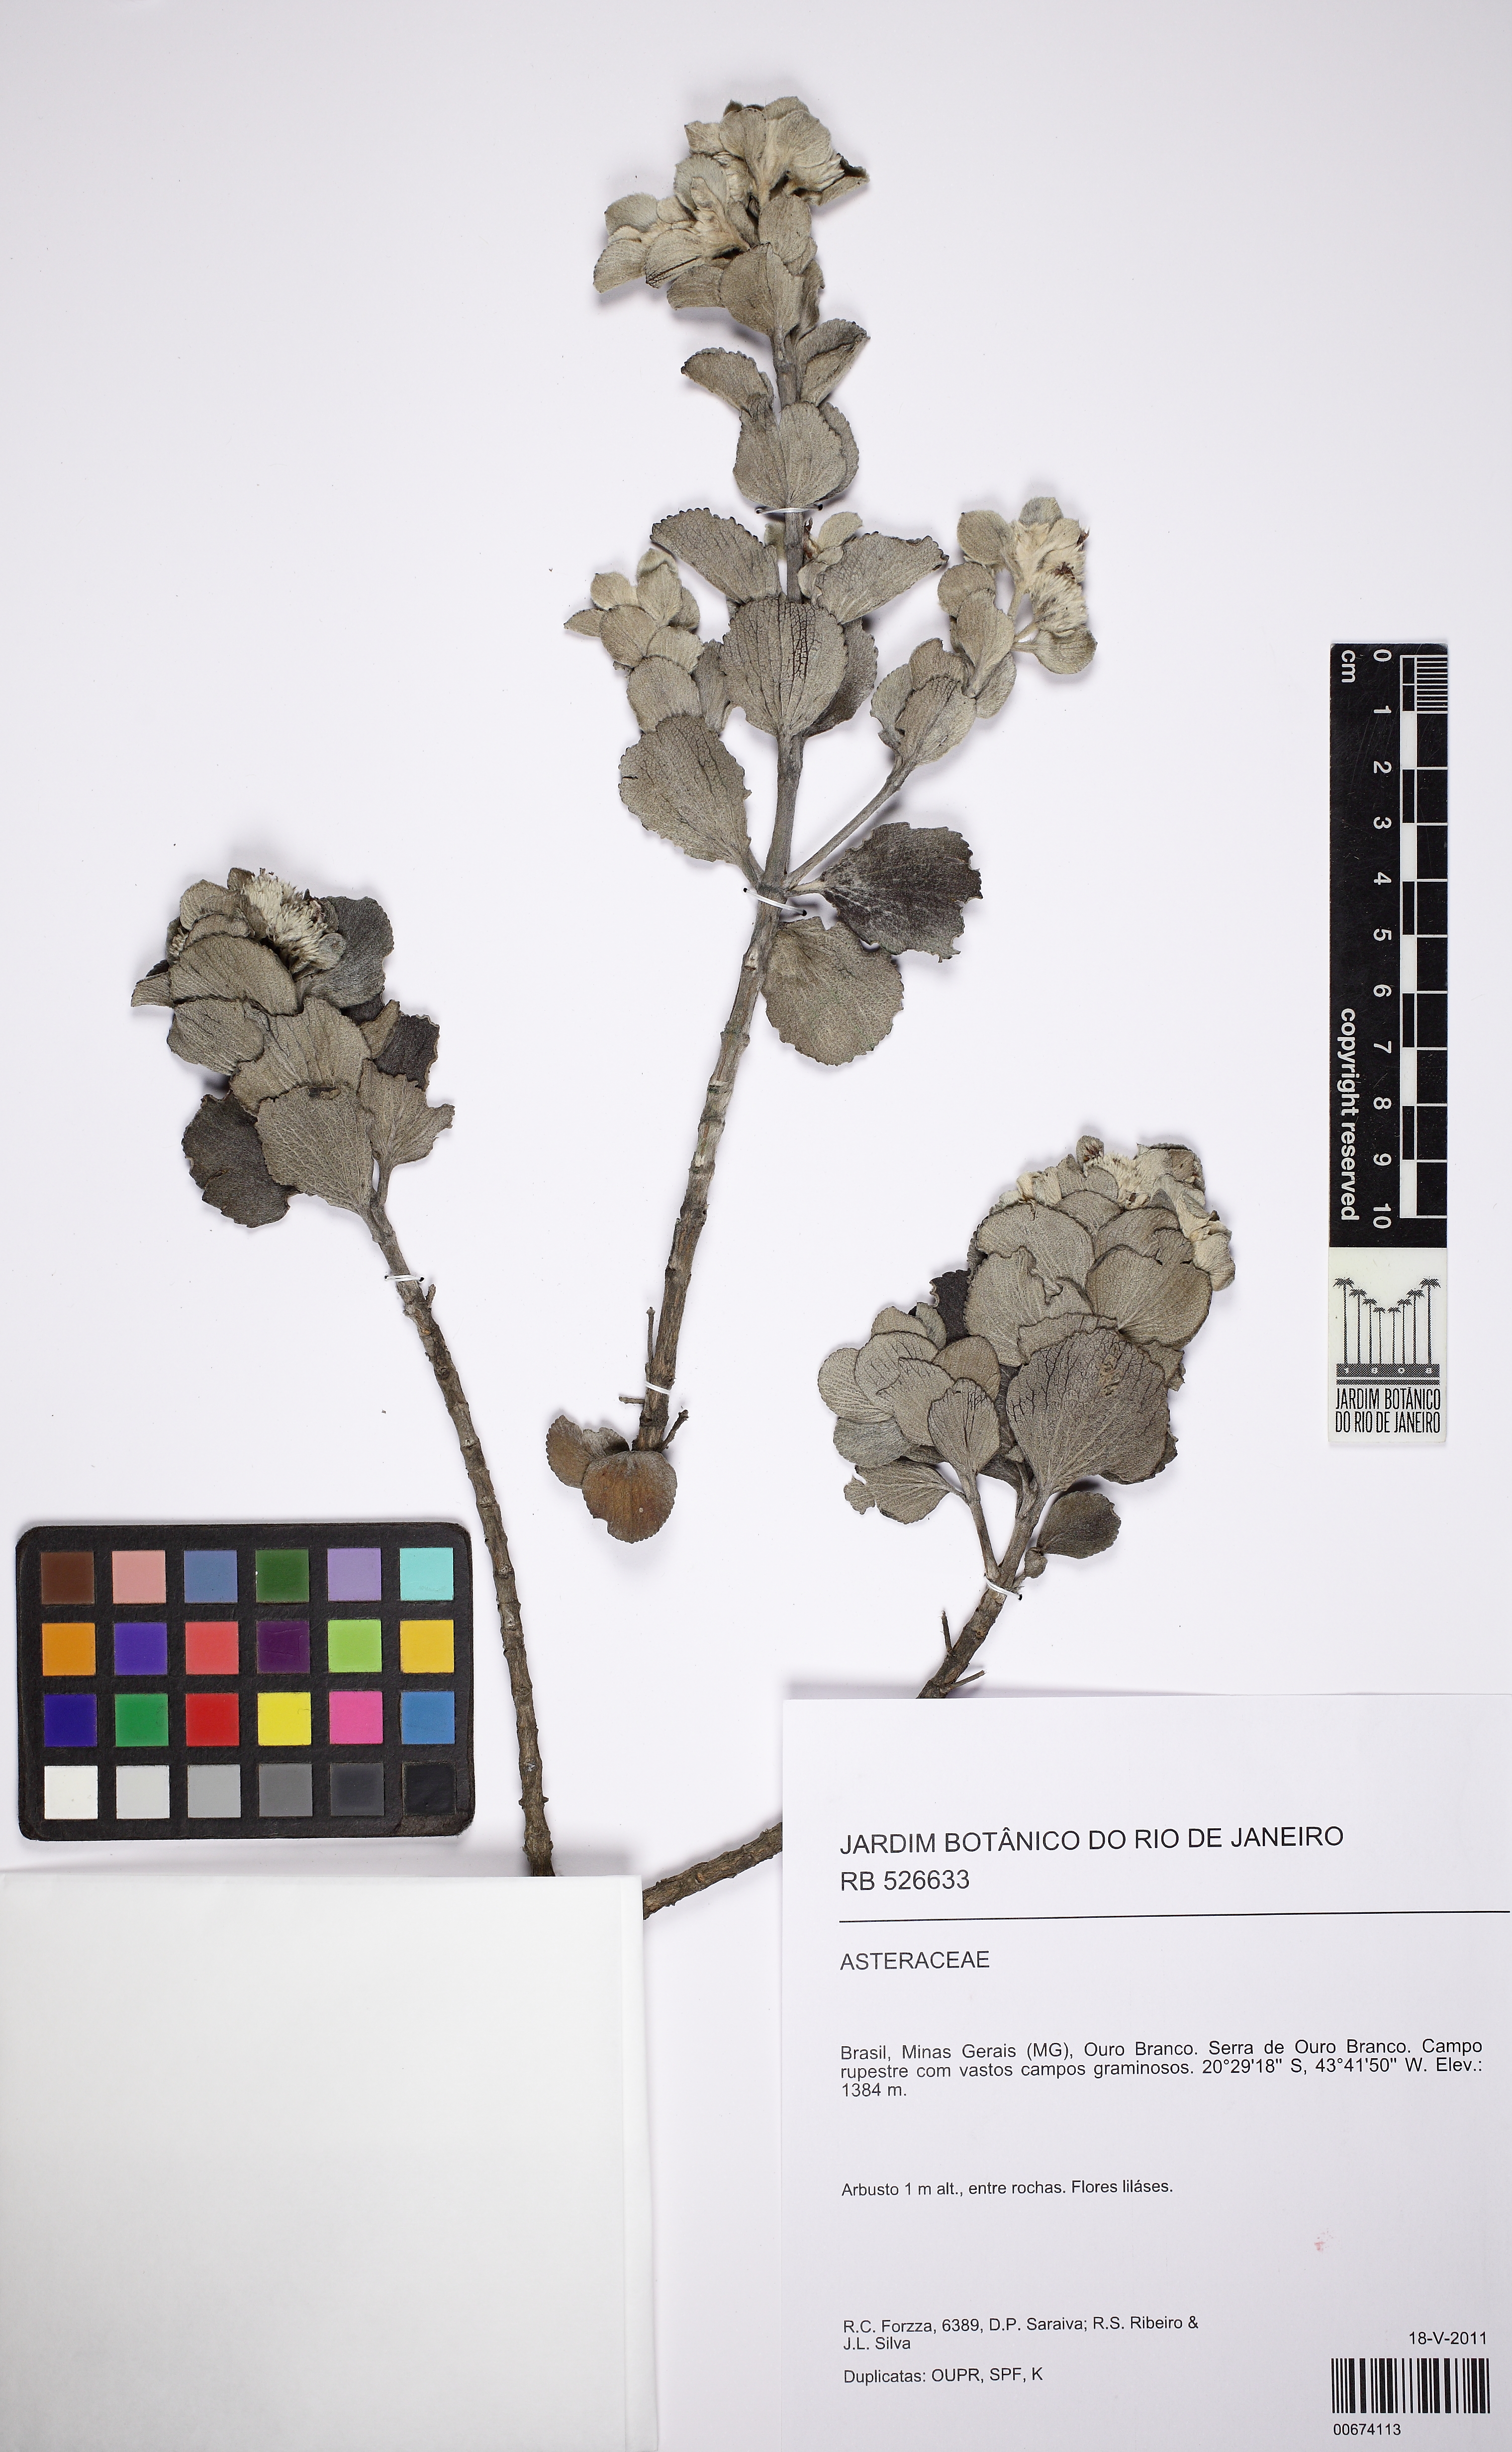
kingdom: Plantae
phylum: Tracheophyta
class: Magnoliopsida
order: Lamiales
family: Lamiaceae
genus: Hyptis
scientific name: Hyptis rhypidiophylla
